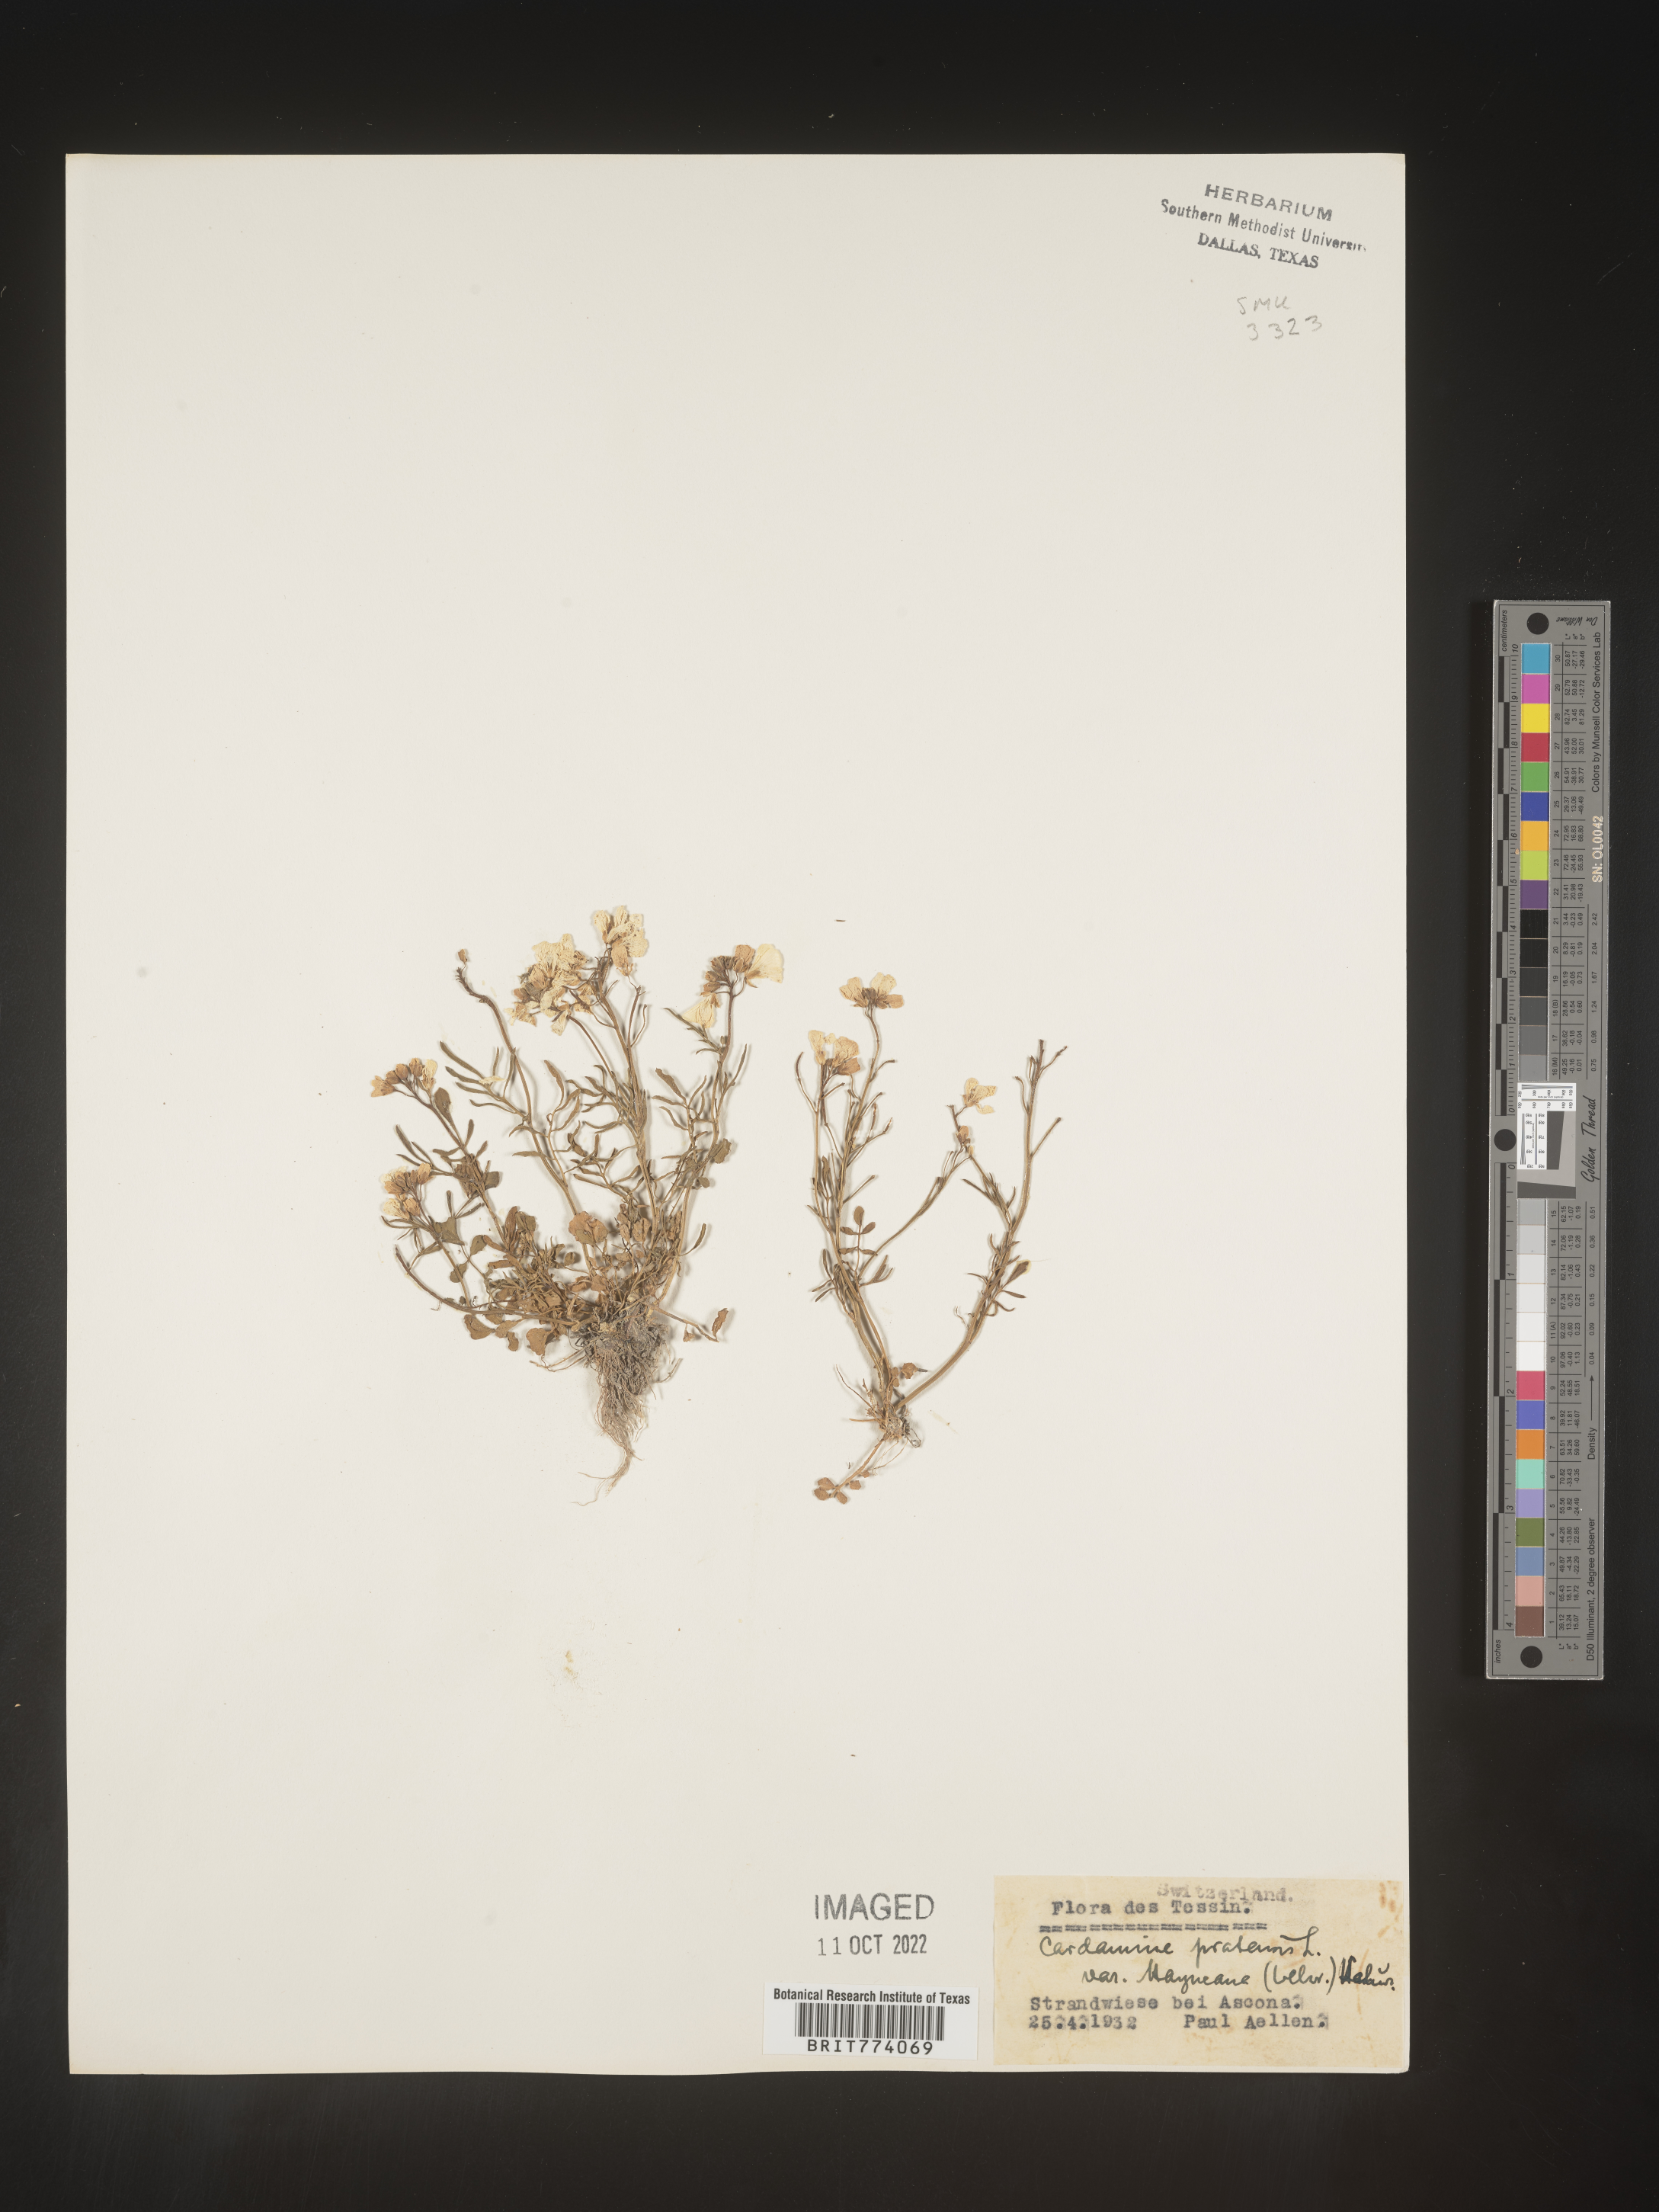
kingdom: Plantae
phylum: Tracheophyta
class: Magnoliopsida
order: Brassicales
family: Brassicaceae
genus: Cardamine
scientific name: Cardamine pratensis
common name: Cuckoo flower
